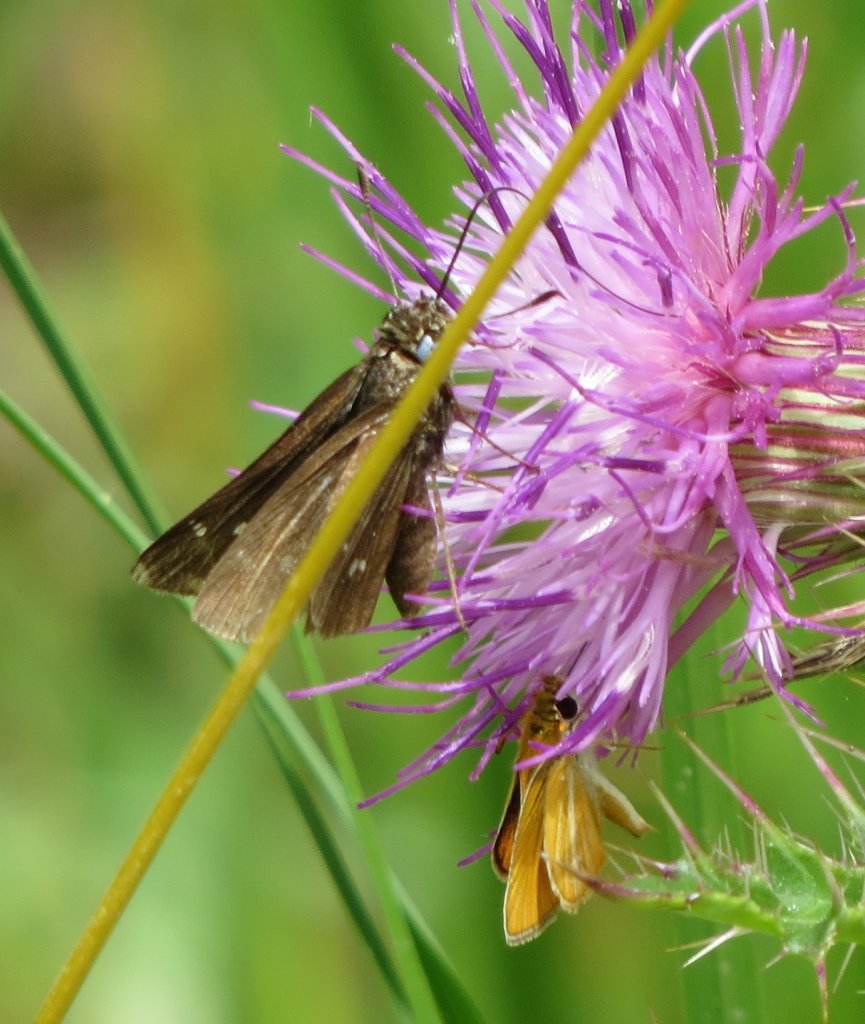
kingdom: Animalia
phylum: Arthropoda
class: Insecta
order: Lepidoptera
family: Hesperiidae
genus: Copaeodes
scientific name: Copaeodes minima
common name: Southern Skipperling
